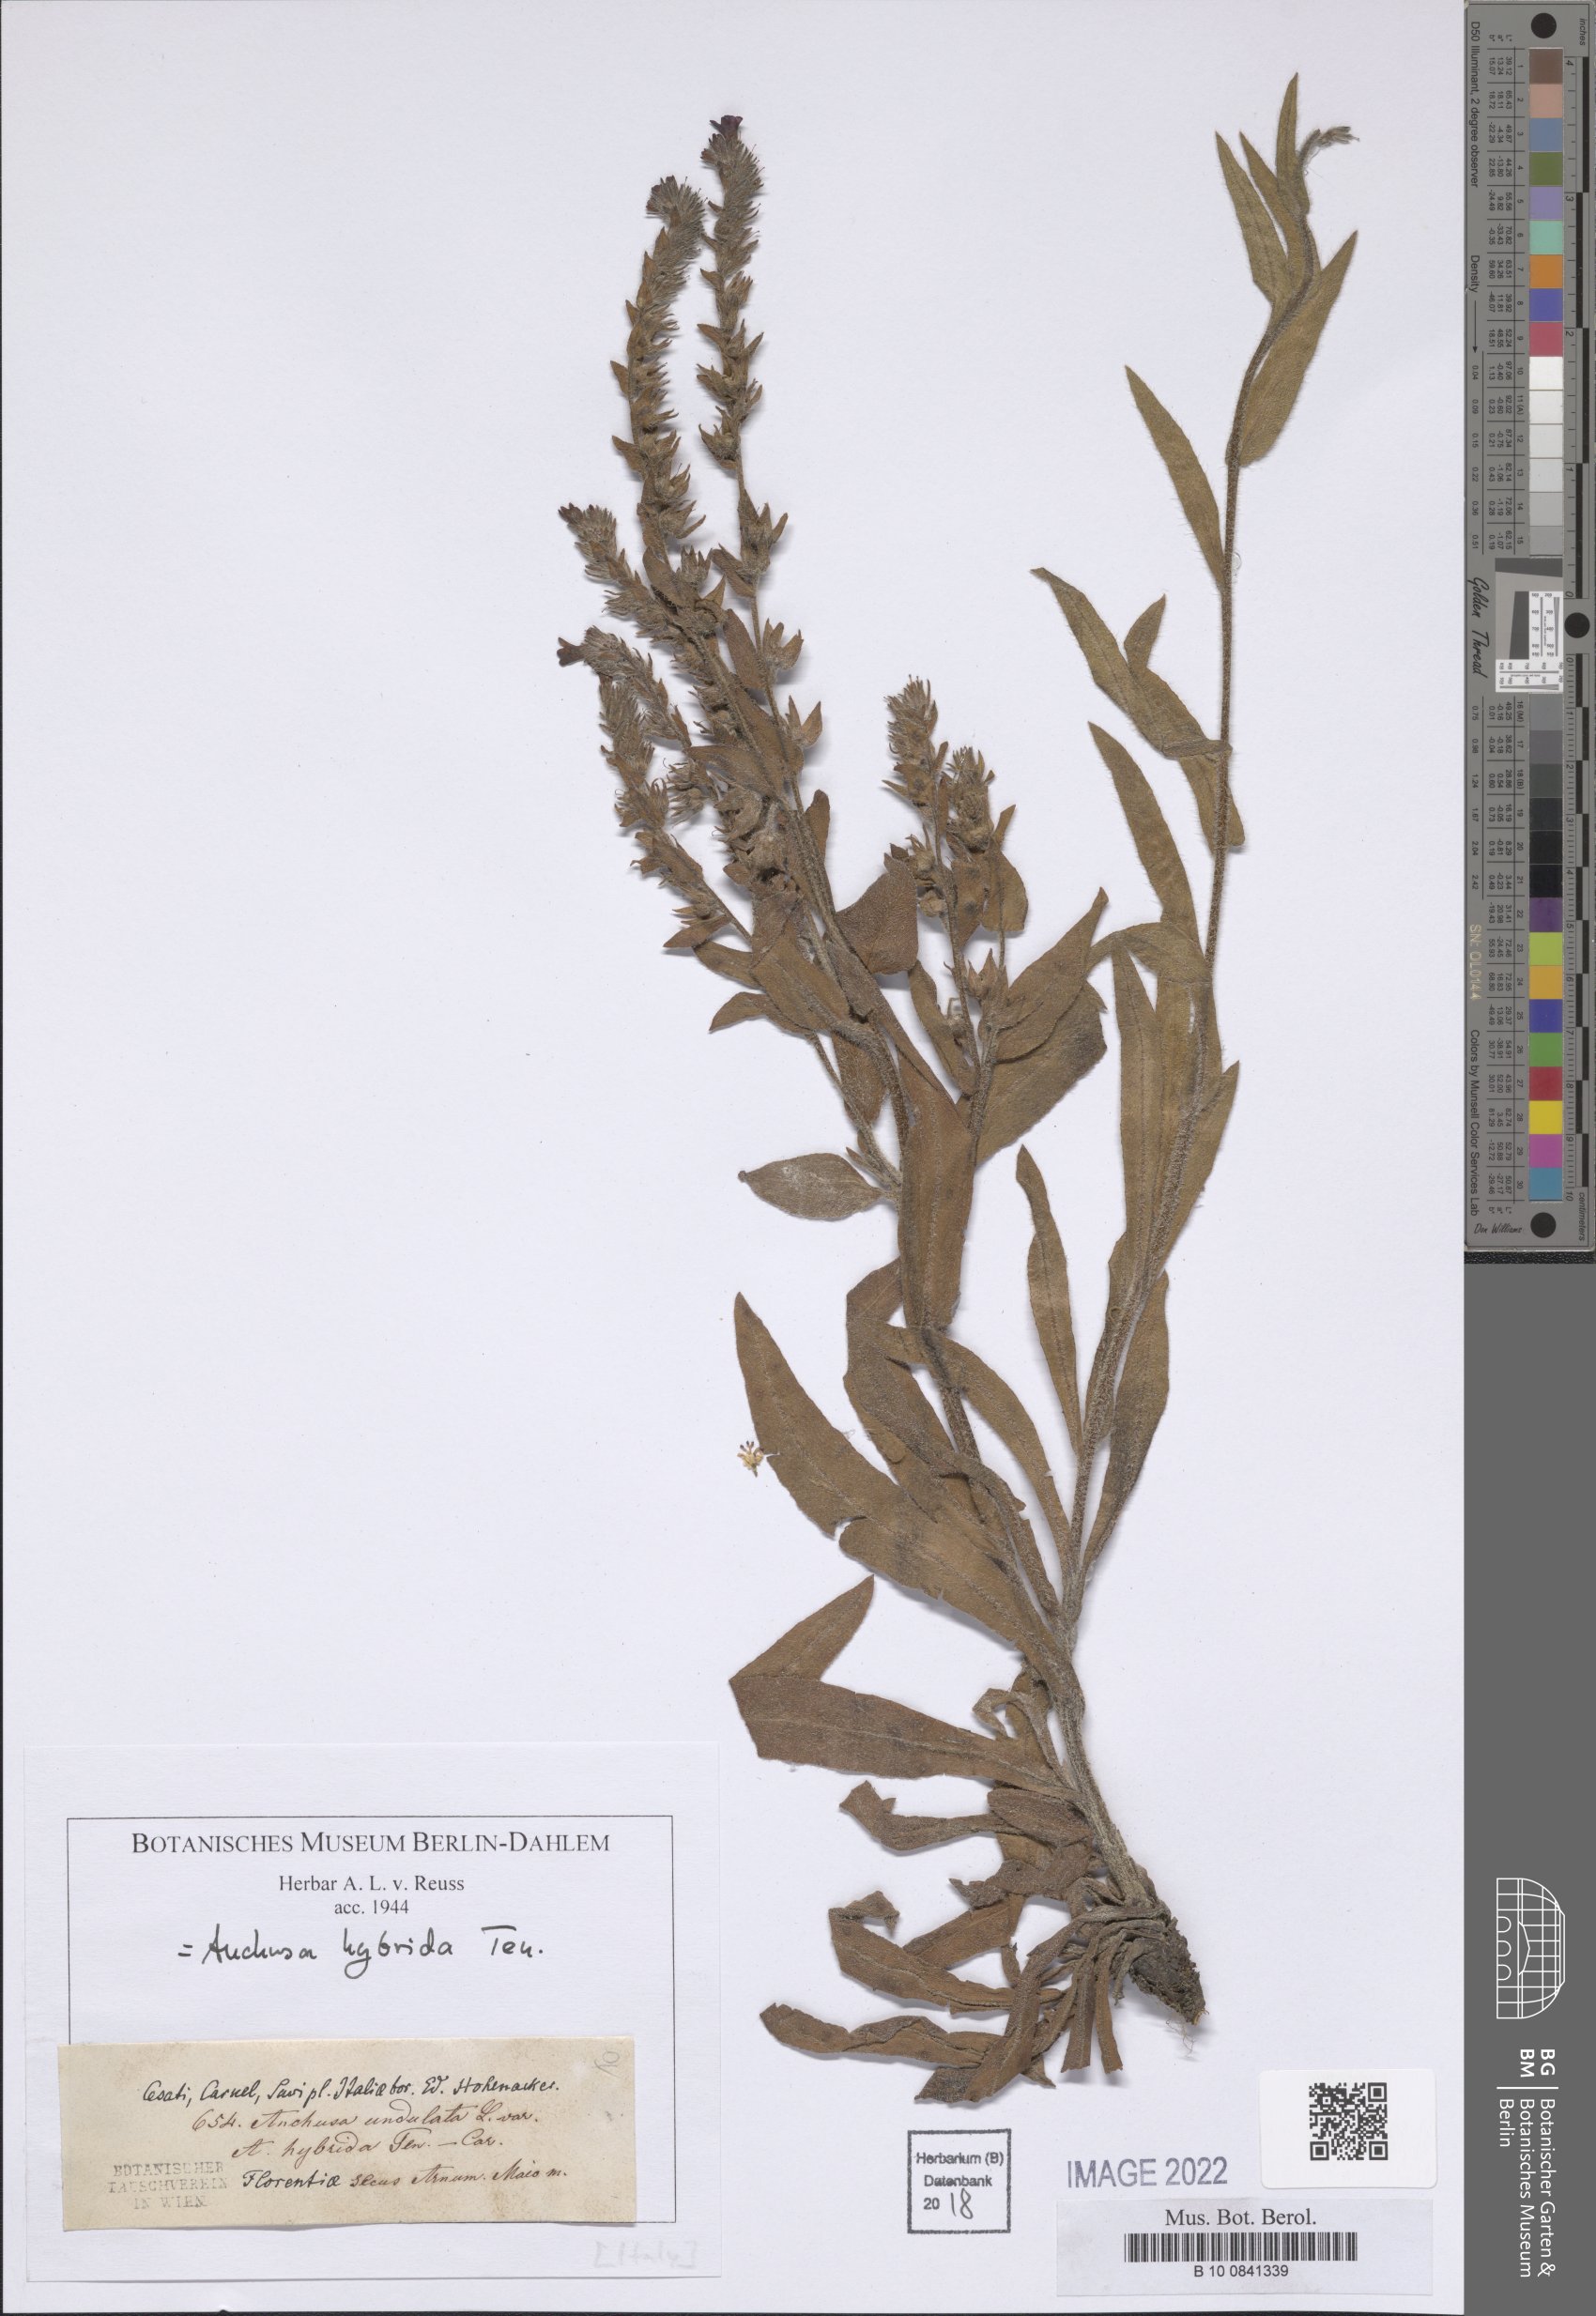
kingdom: Plantae
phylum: Tracheophyta
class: Magnoliopsida
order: Boraginales
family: Boraginaceae
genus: Anchusa
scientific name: Anchusa hybrida
